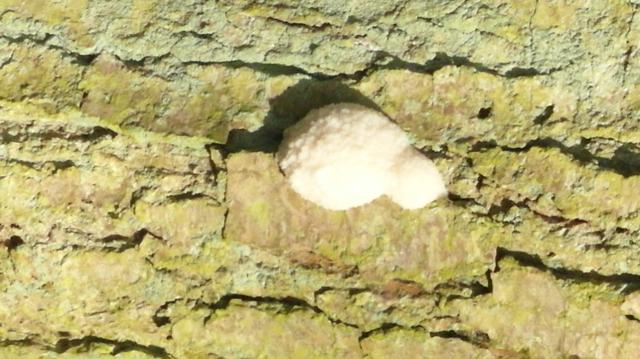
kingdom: Protozoa
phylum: Mycetozoa
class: Myxomycetes
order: Cribrariales
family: Tubiferaceae
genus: Reticularia
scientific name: Reticularia lycoperdon
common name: skinnende støvpude
